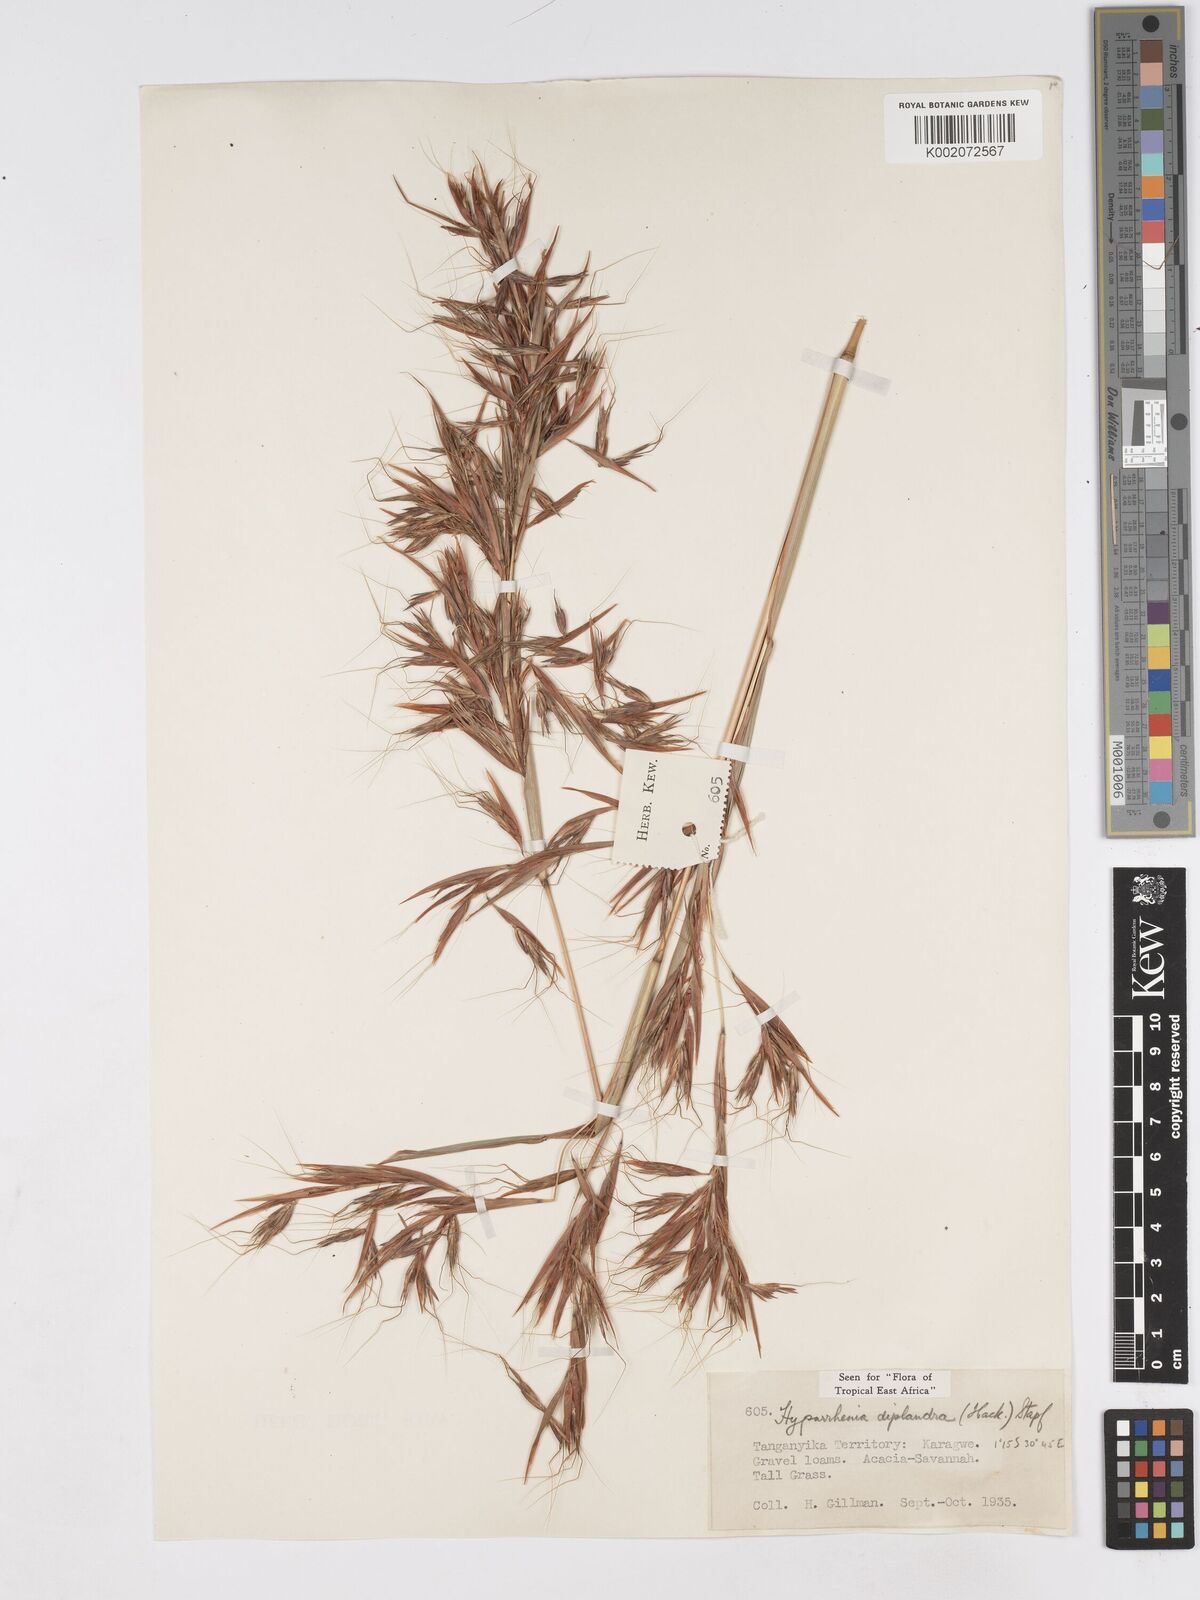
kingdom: Plantae
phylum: Tracheophyta
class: Liliopsida
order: Poales
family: Poaceae
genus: Hyparrhenia
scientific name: Hyparrhenia diplandra
